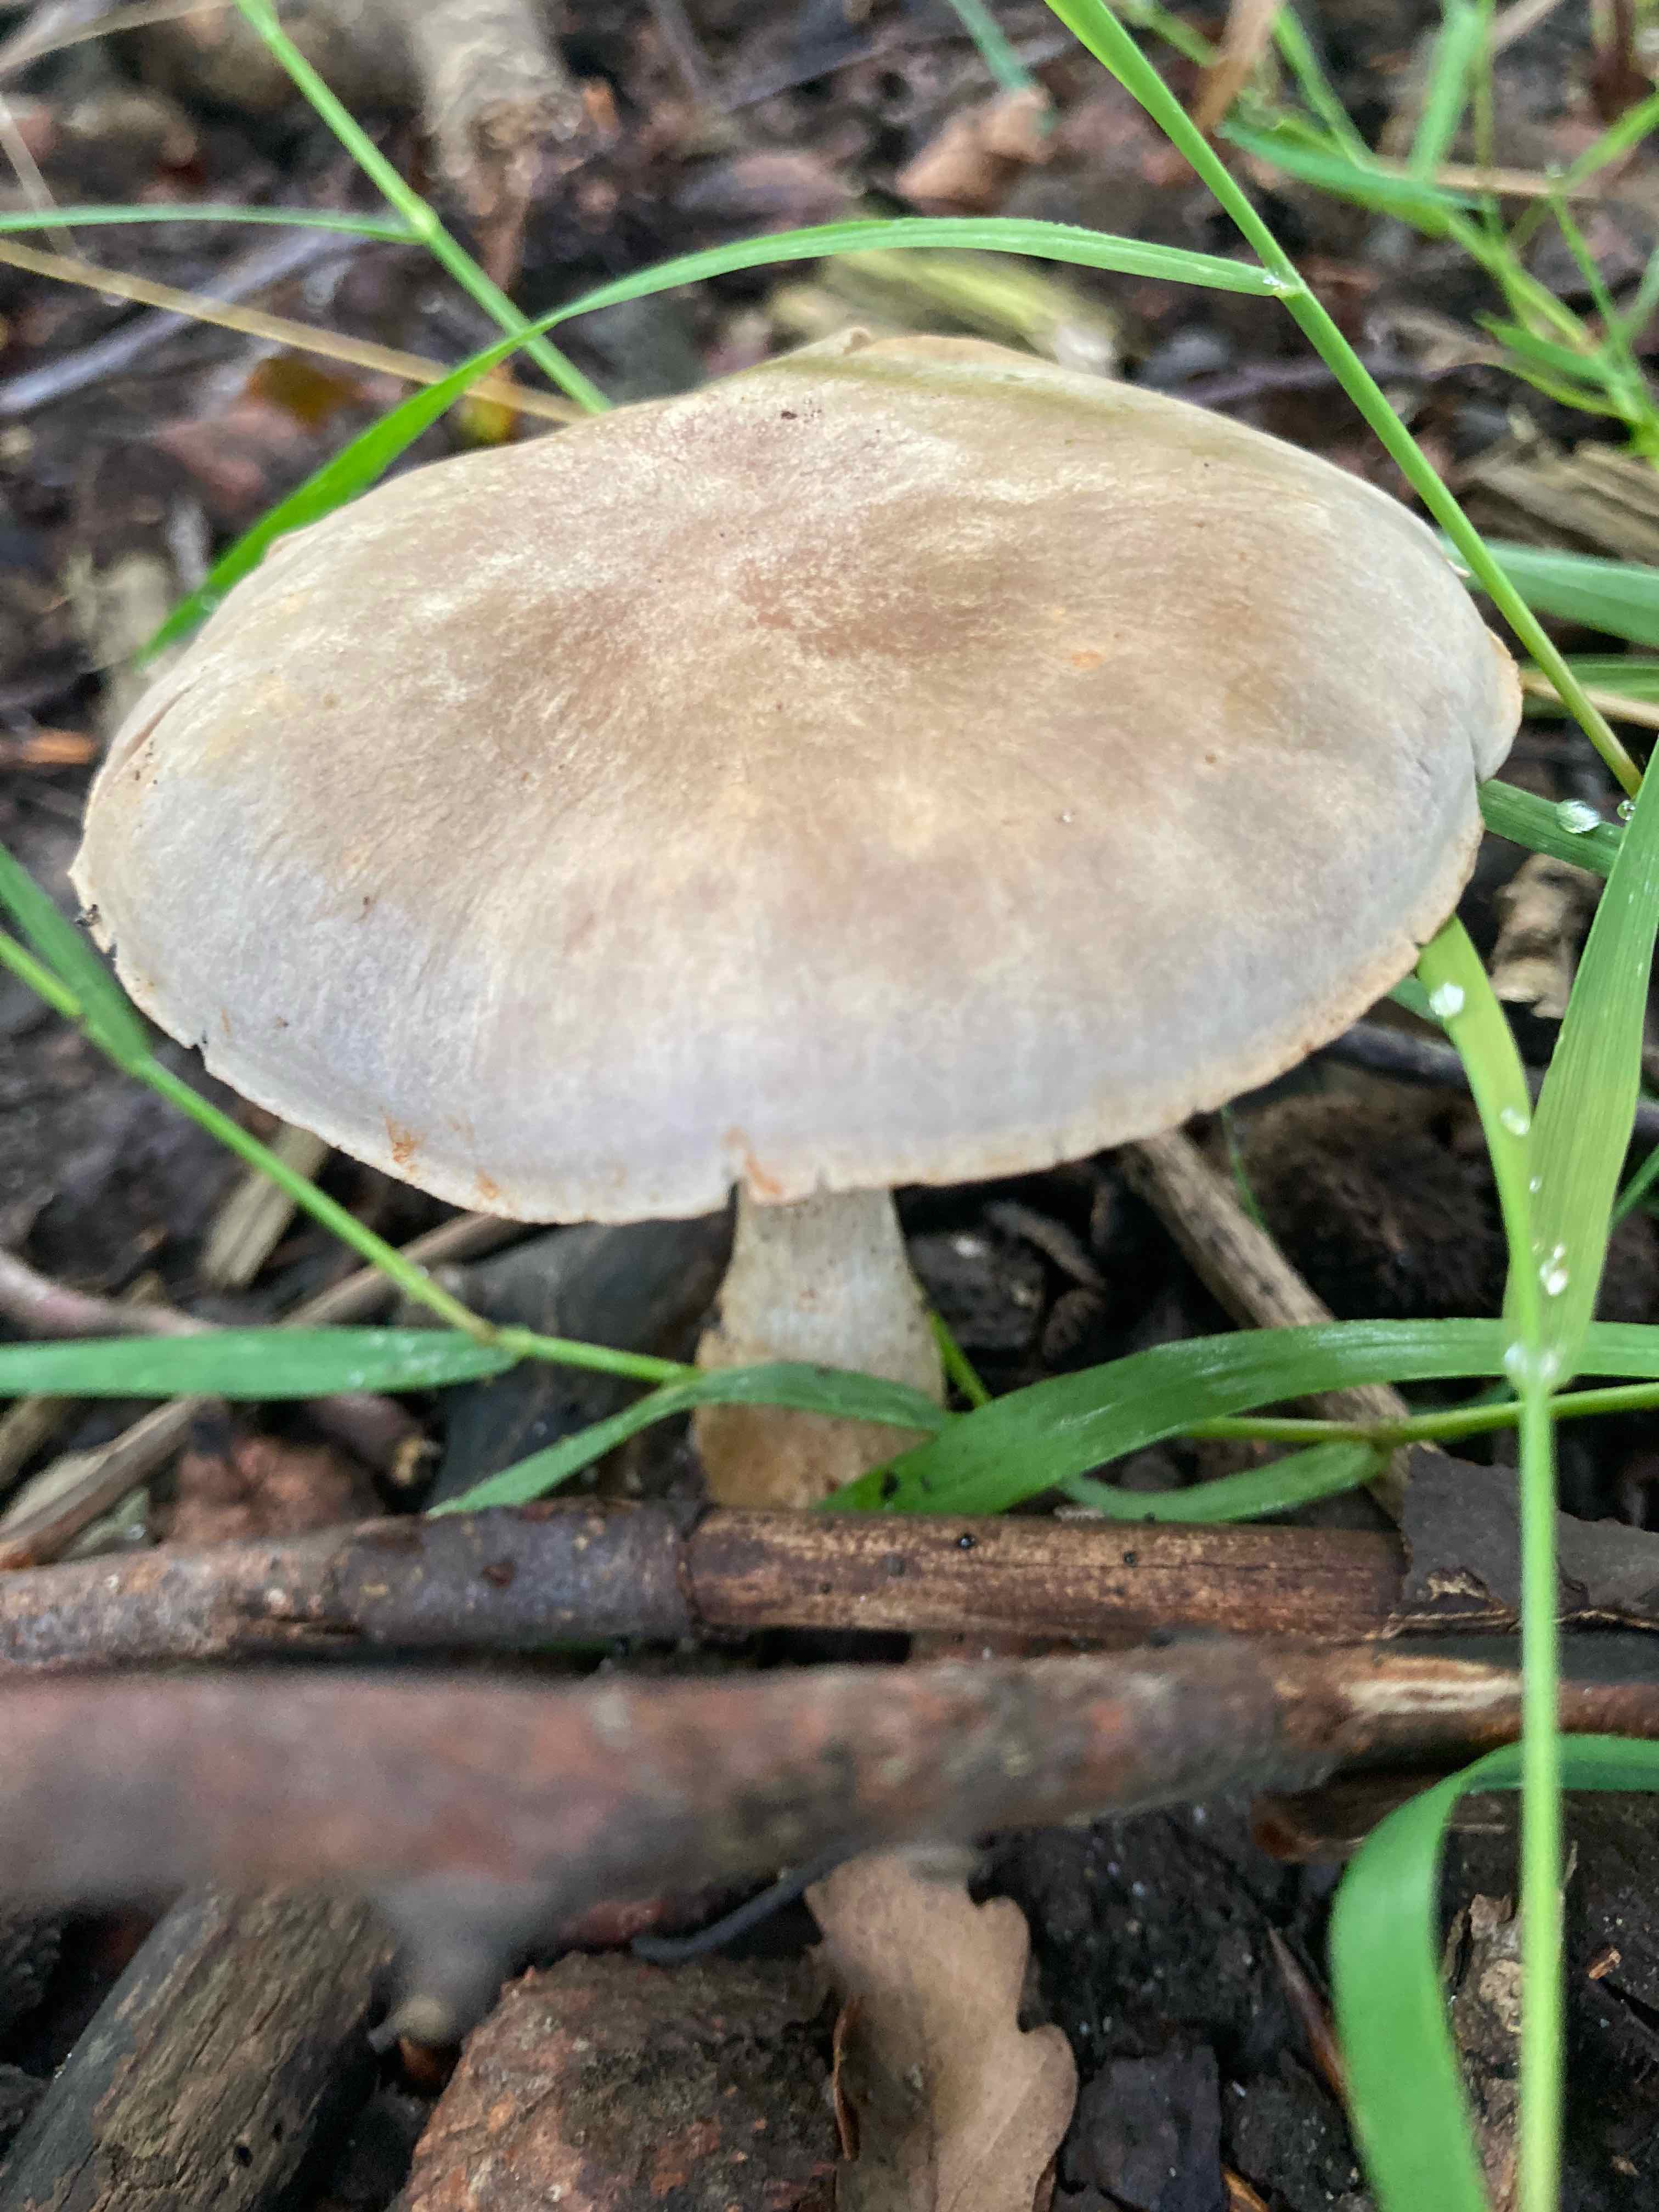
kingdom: Fungi
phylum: Basidiomycota
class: Agaricomycetes
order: Agaricales
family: Cortinariaceae
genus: Cortinarius
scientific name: Cortinarius
